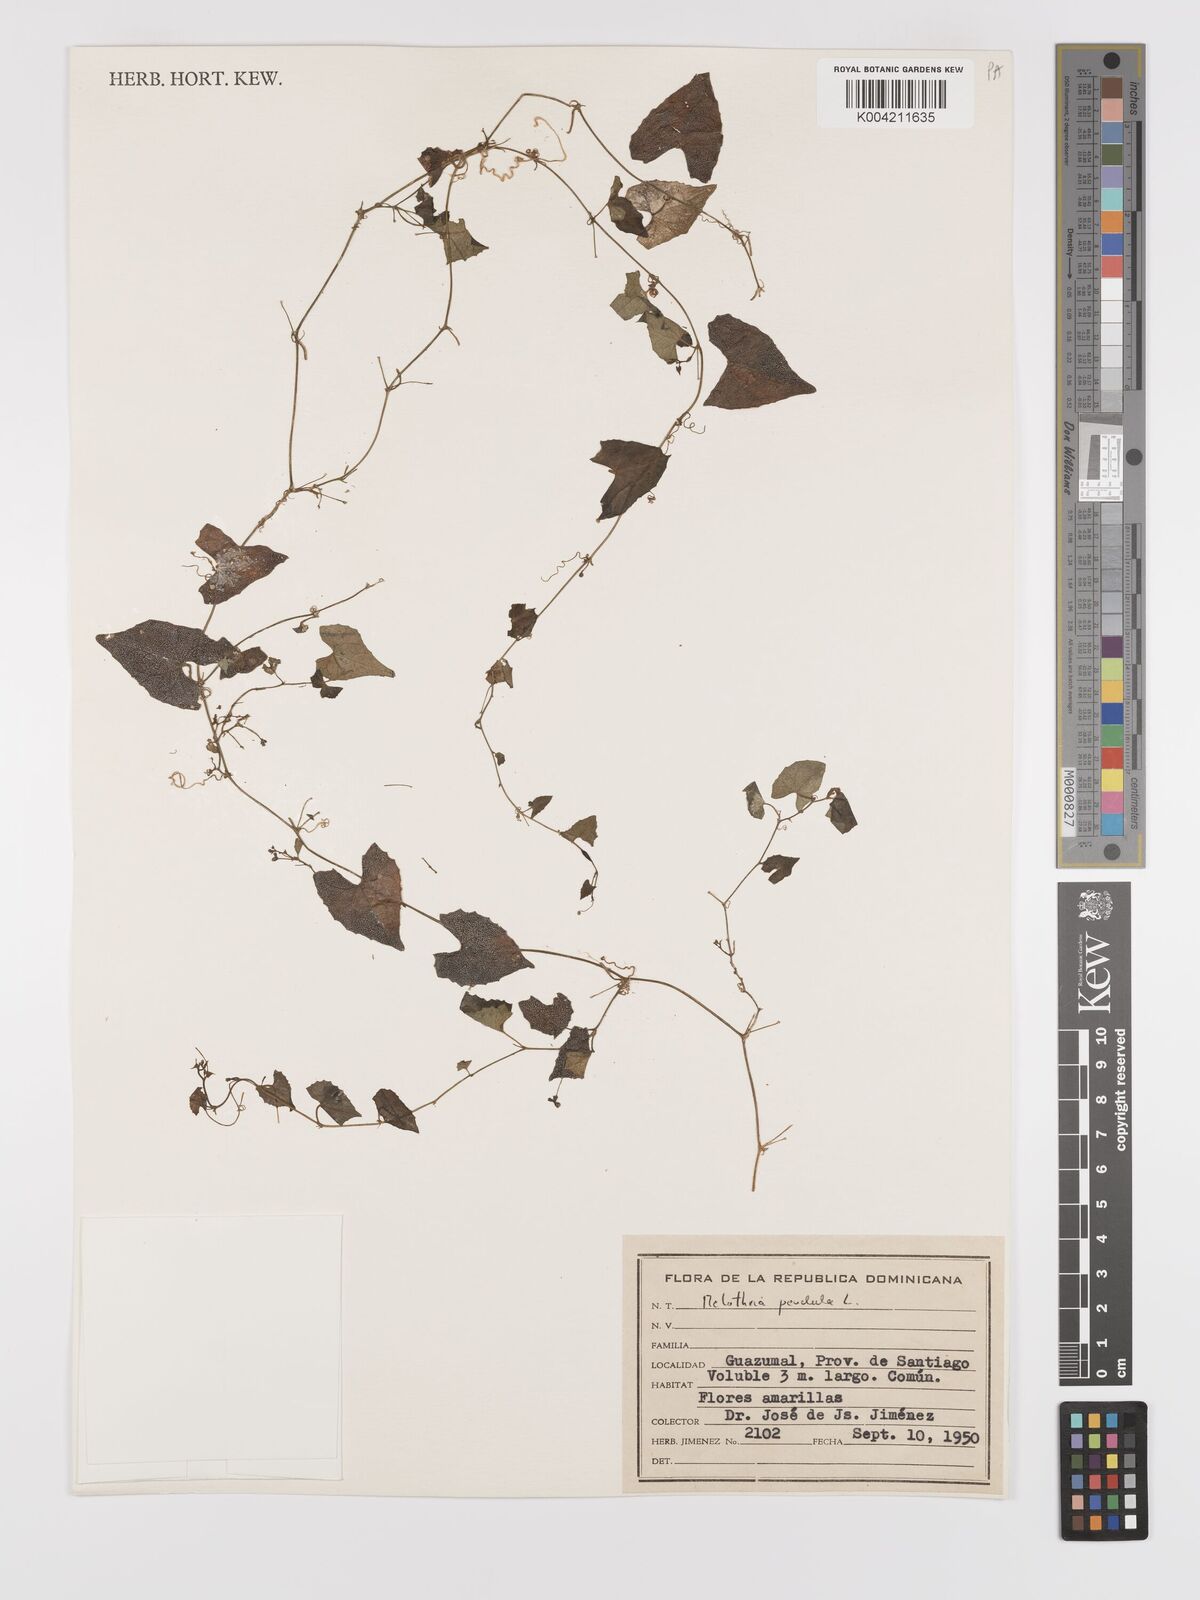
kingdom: Plantae
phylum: Tracheophyta
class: Magnoliopsida
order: Cucurbitales
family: Cucurbitaceae
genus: Melothria
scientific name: Melothria
